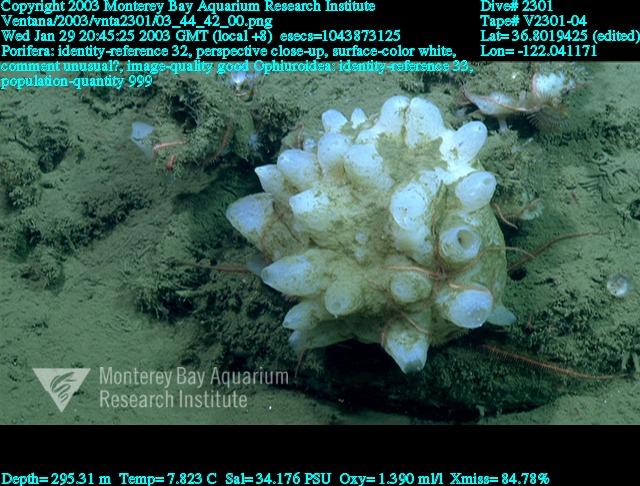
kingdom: Animalia
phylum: Porifera
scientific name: Porifera
